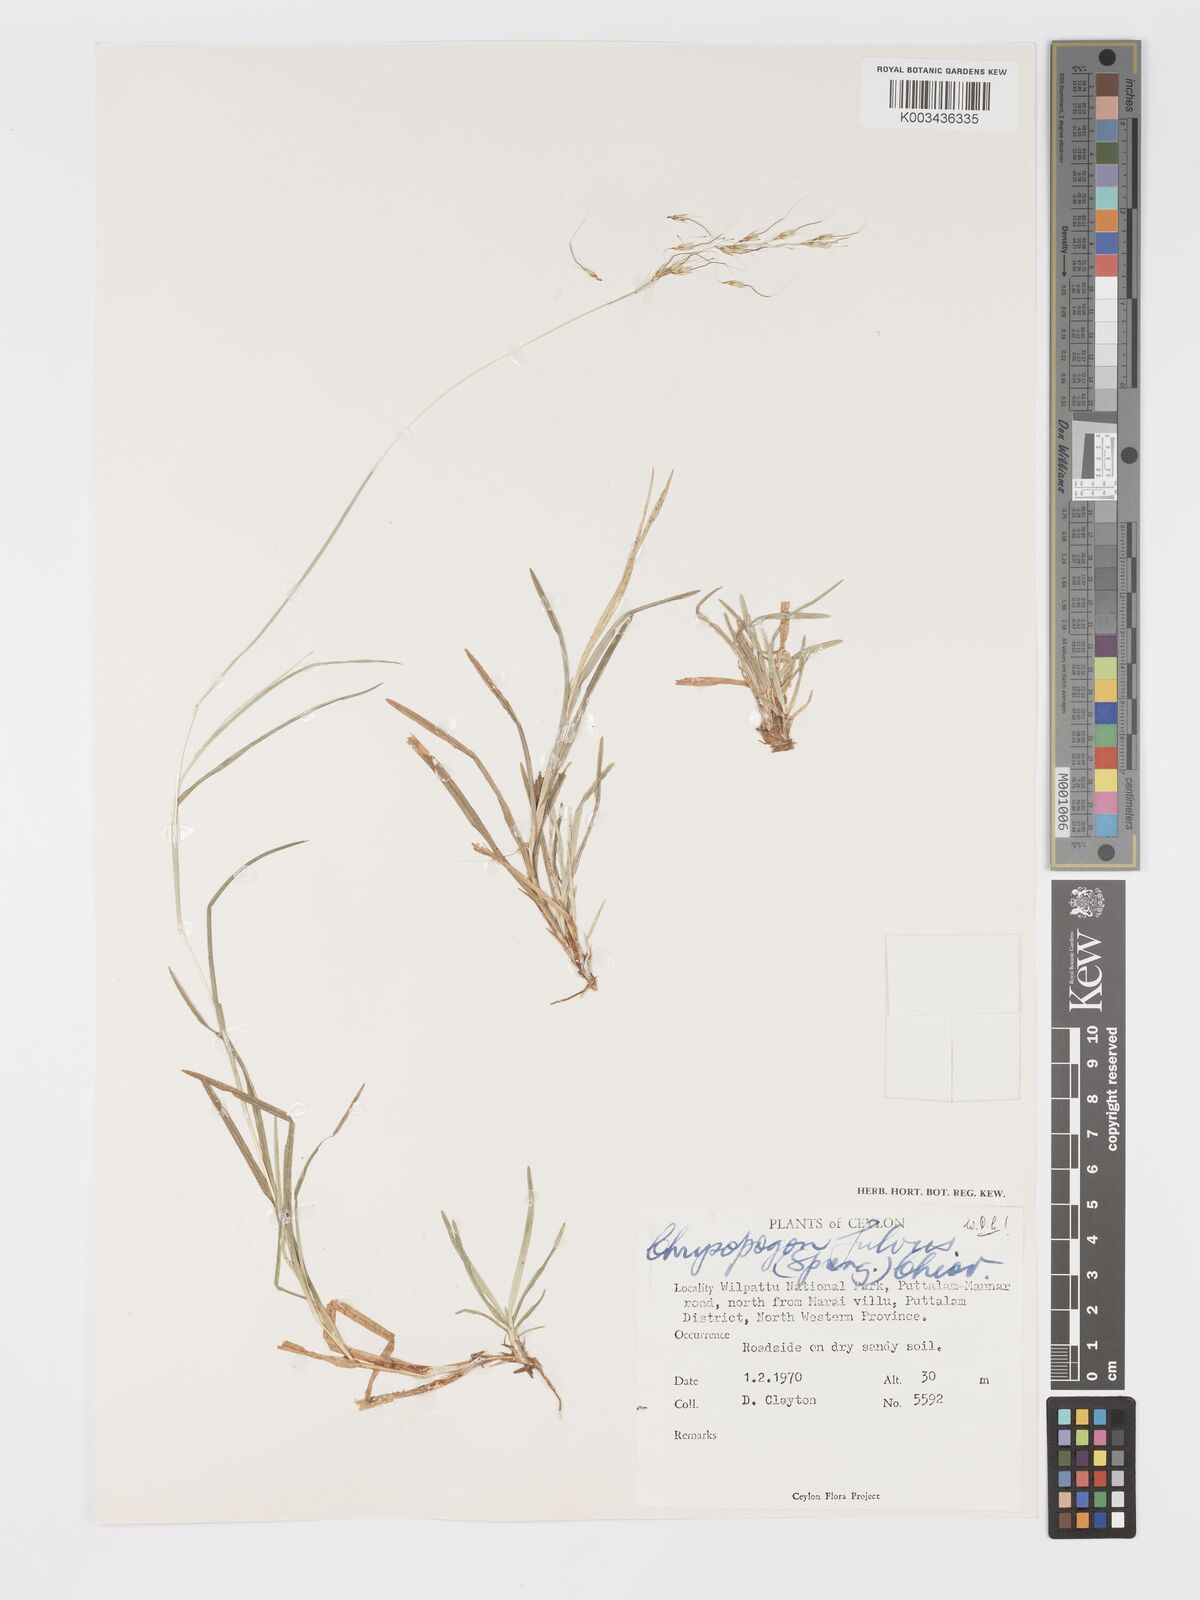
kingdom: Plantae
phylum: Tracheophyta
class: Liliopsida
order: Poales
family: Poaceae
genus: Chrysopogon
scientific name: Chrysopogon fulvus
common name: Red false beardgrass
